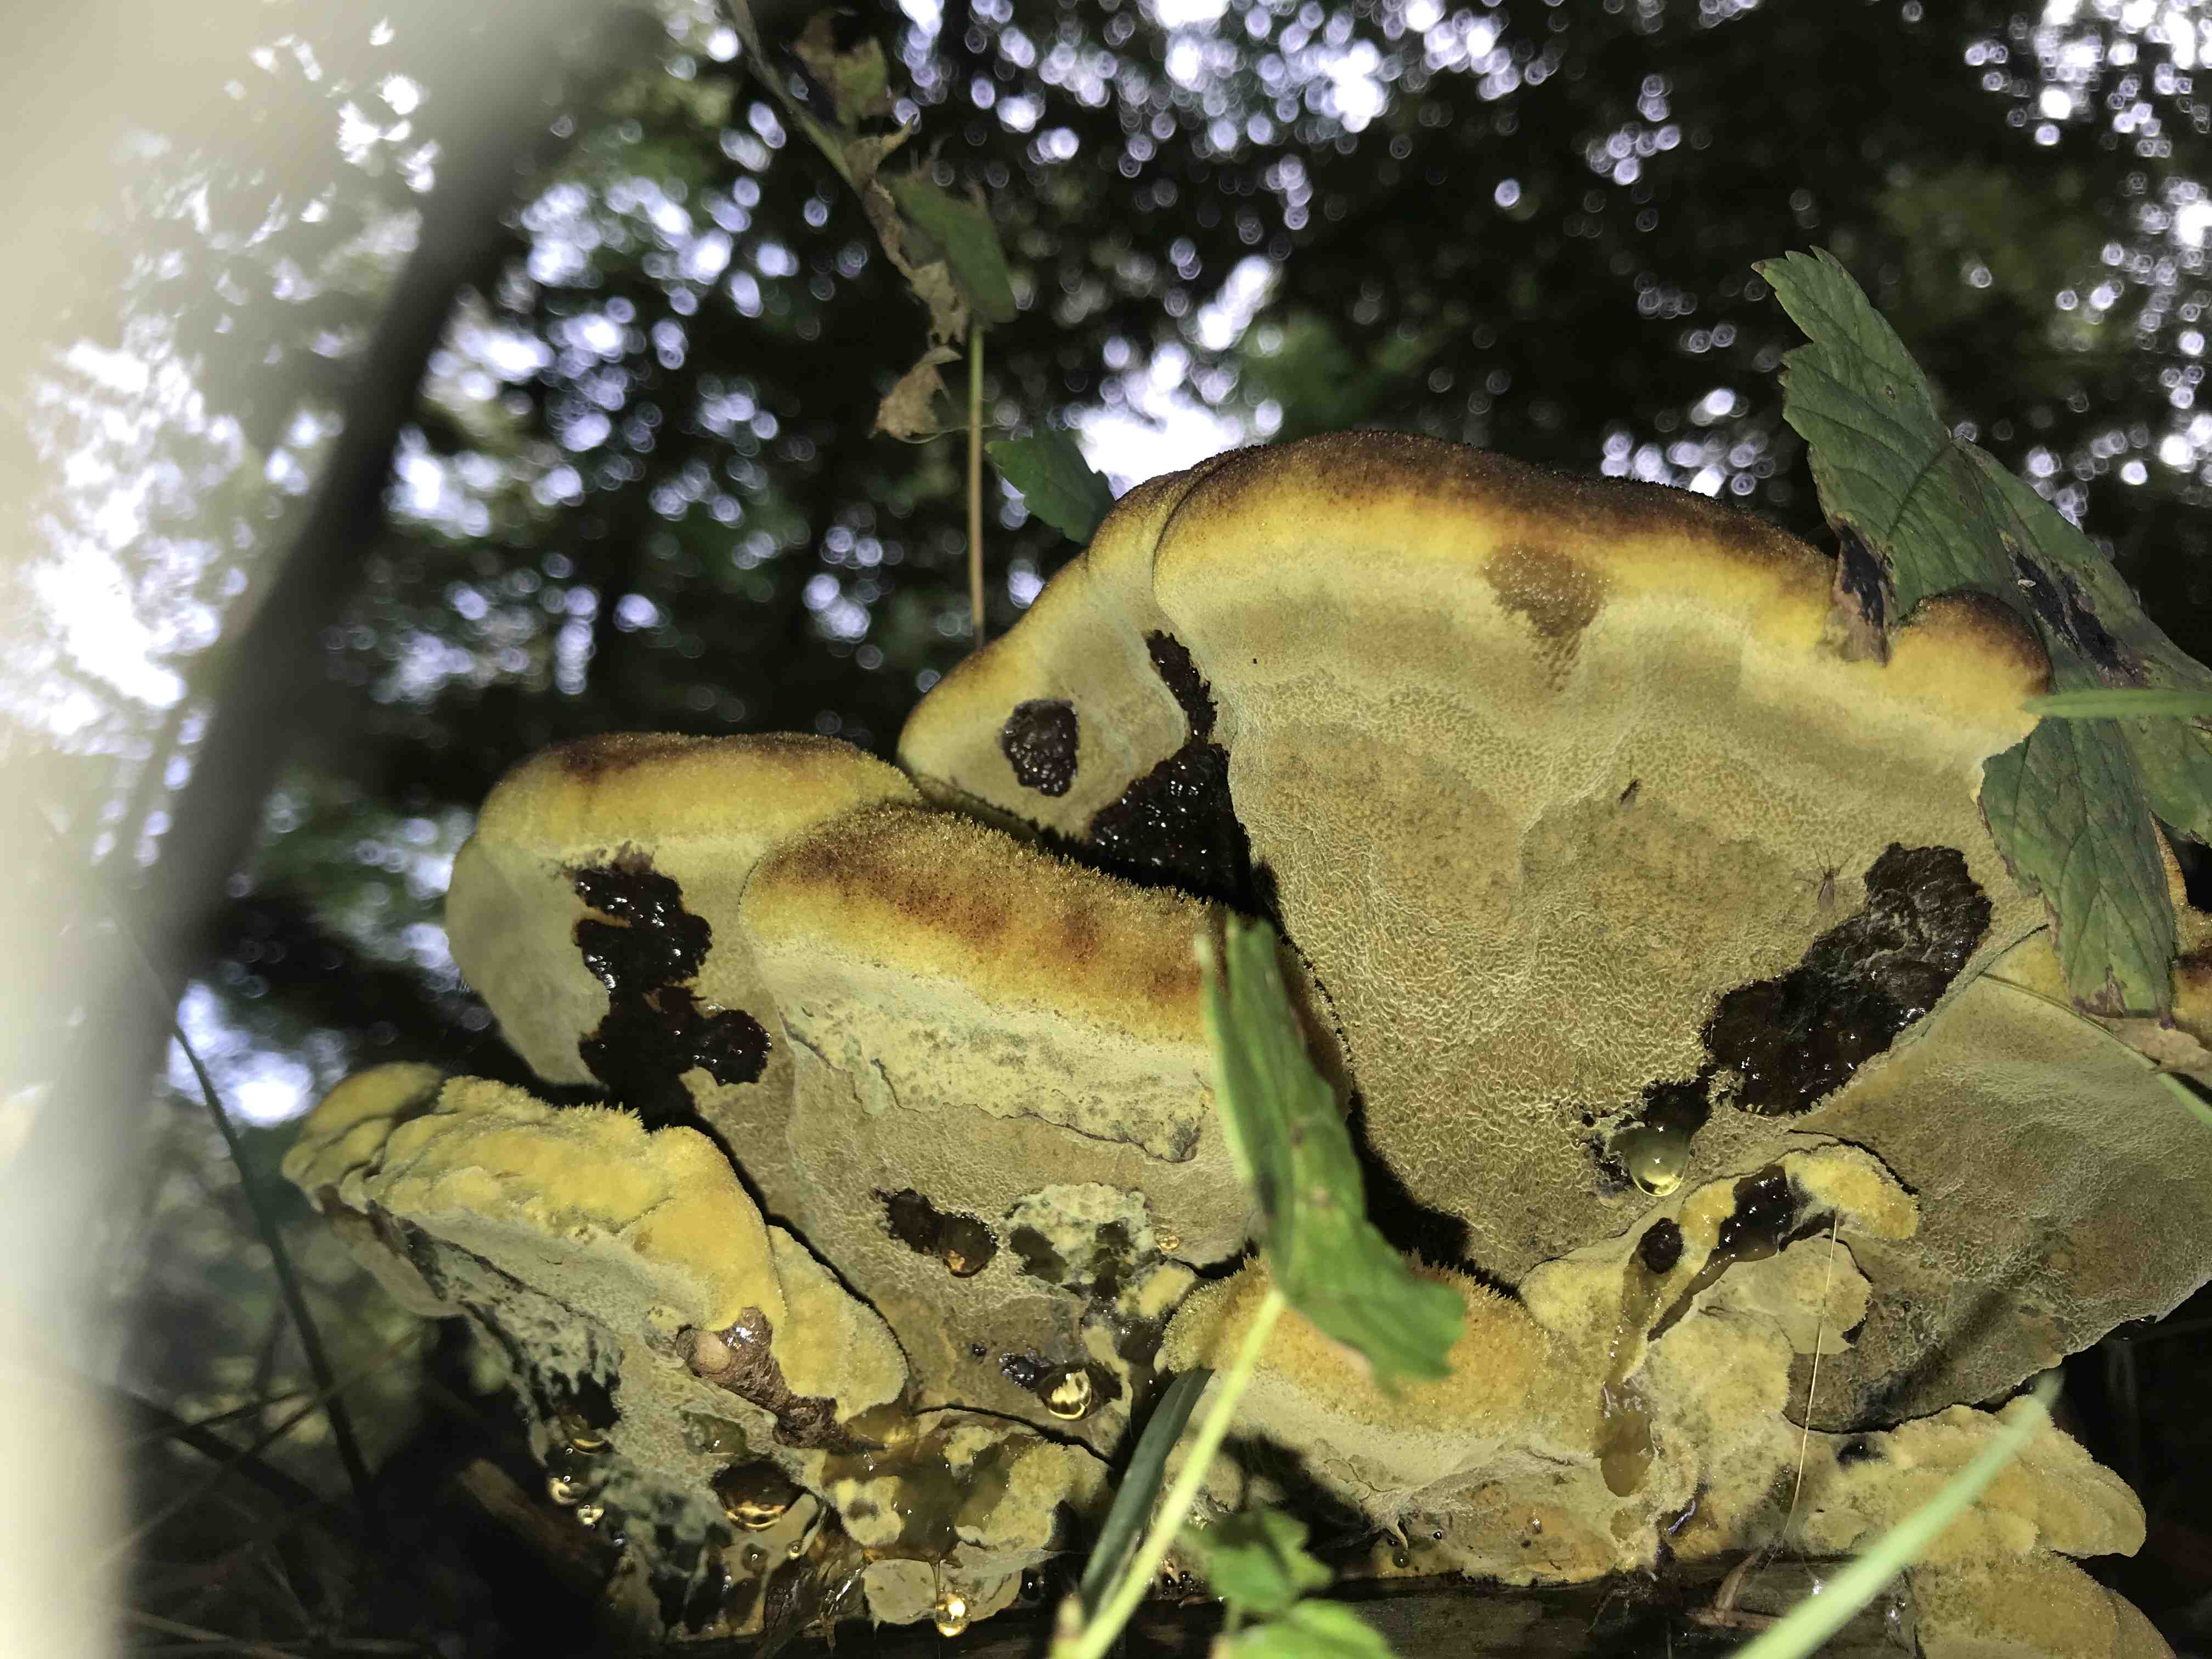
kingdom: Fungi
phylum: Basidiomycota
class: Agaricomycetes
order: Polyporales
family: Laetiporaceae
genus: Phaeolus
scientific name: Phaeolus schweinitzii
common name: brunporesvamp
